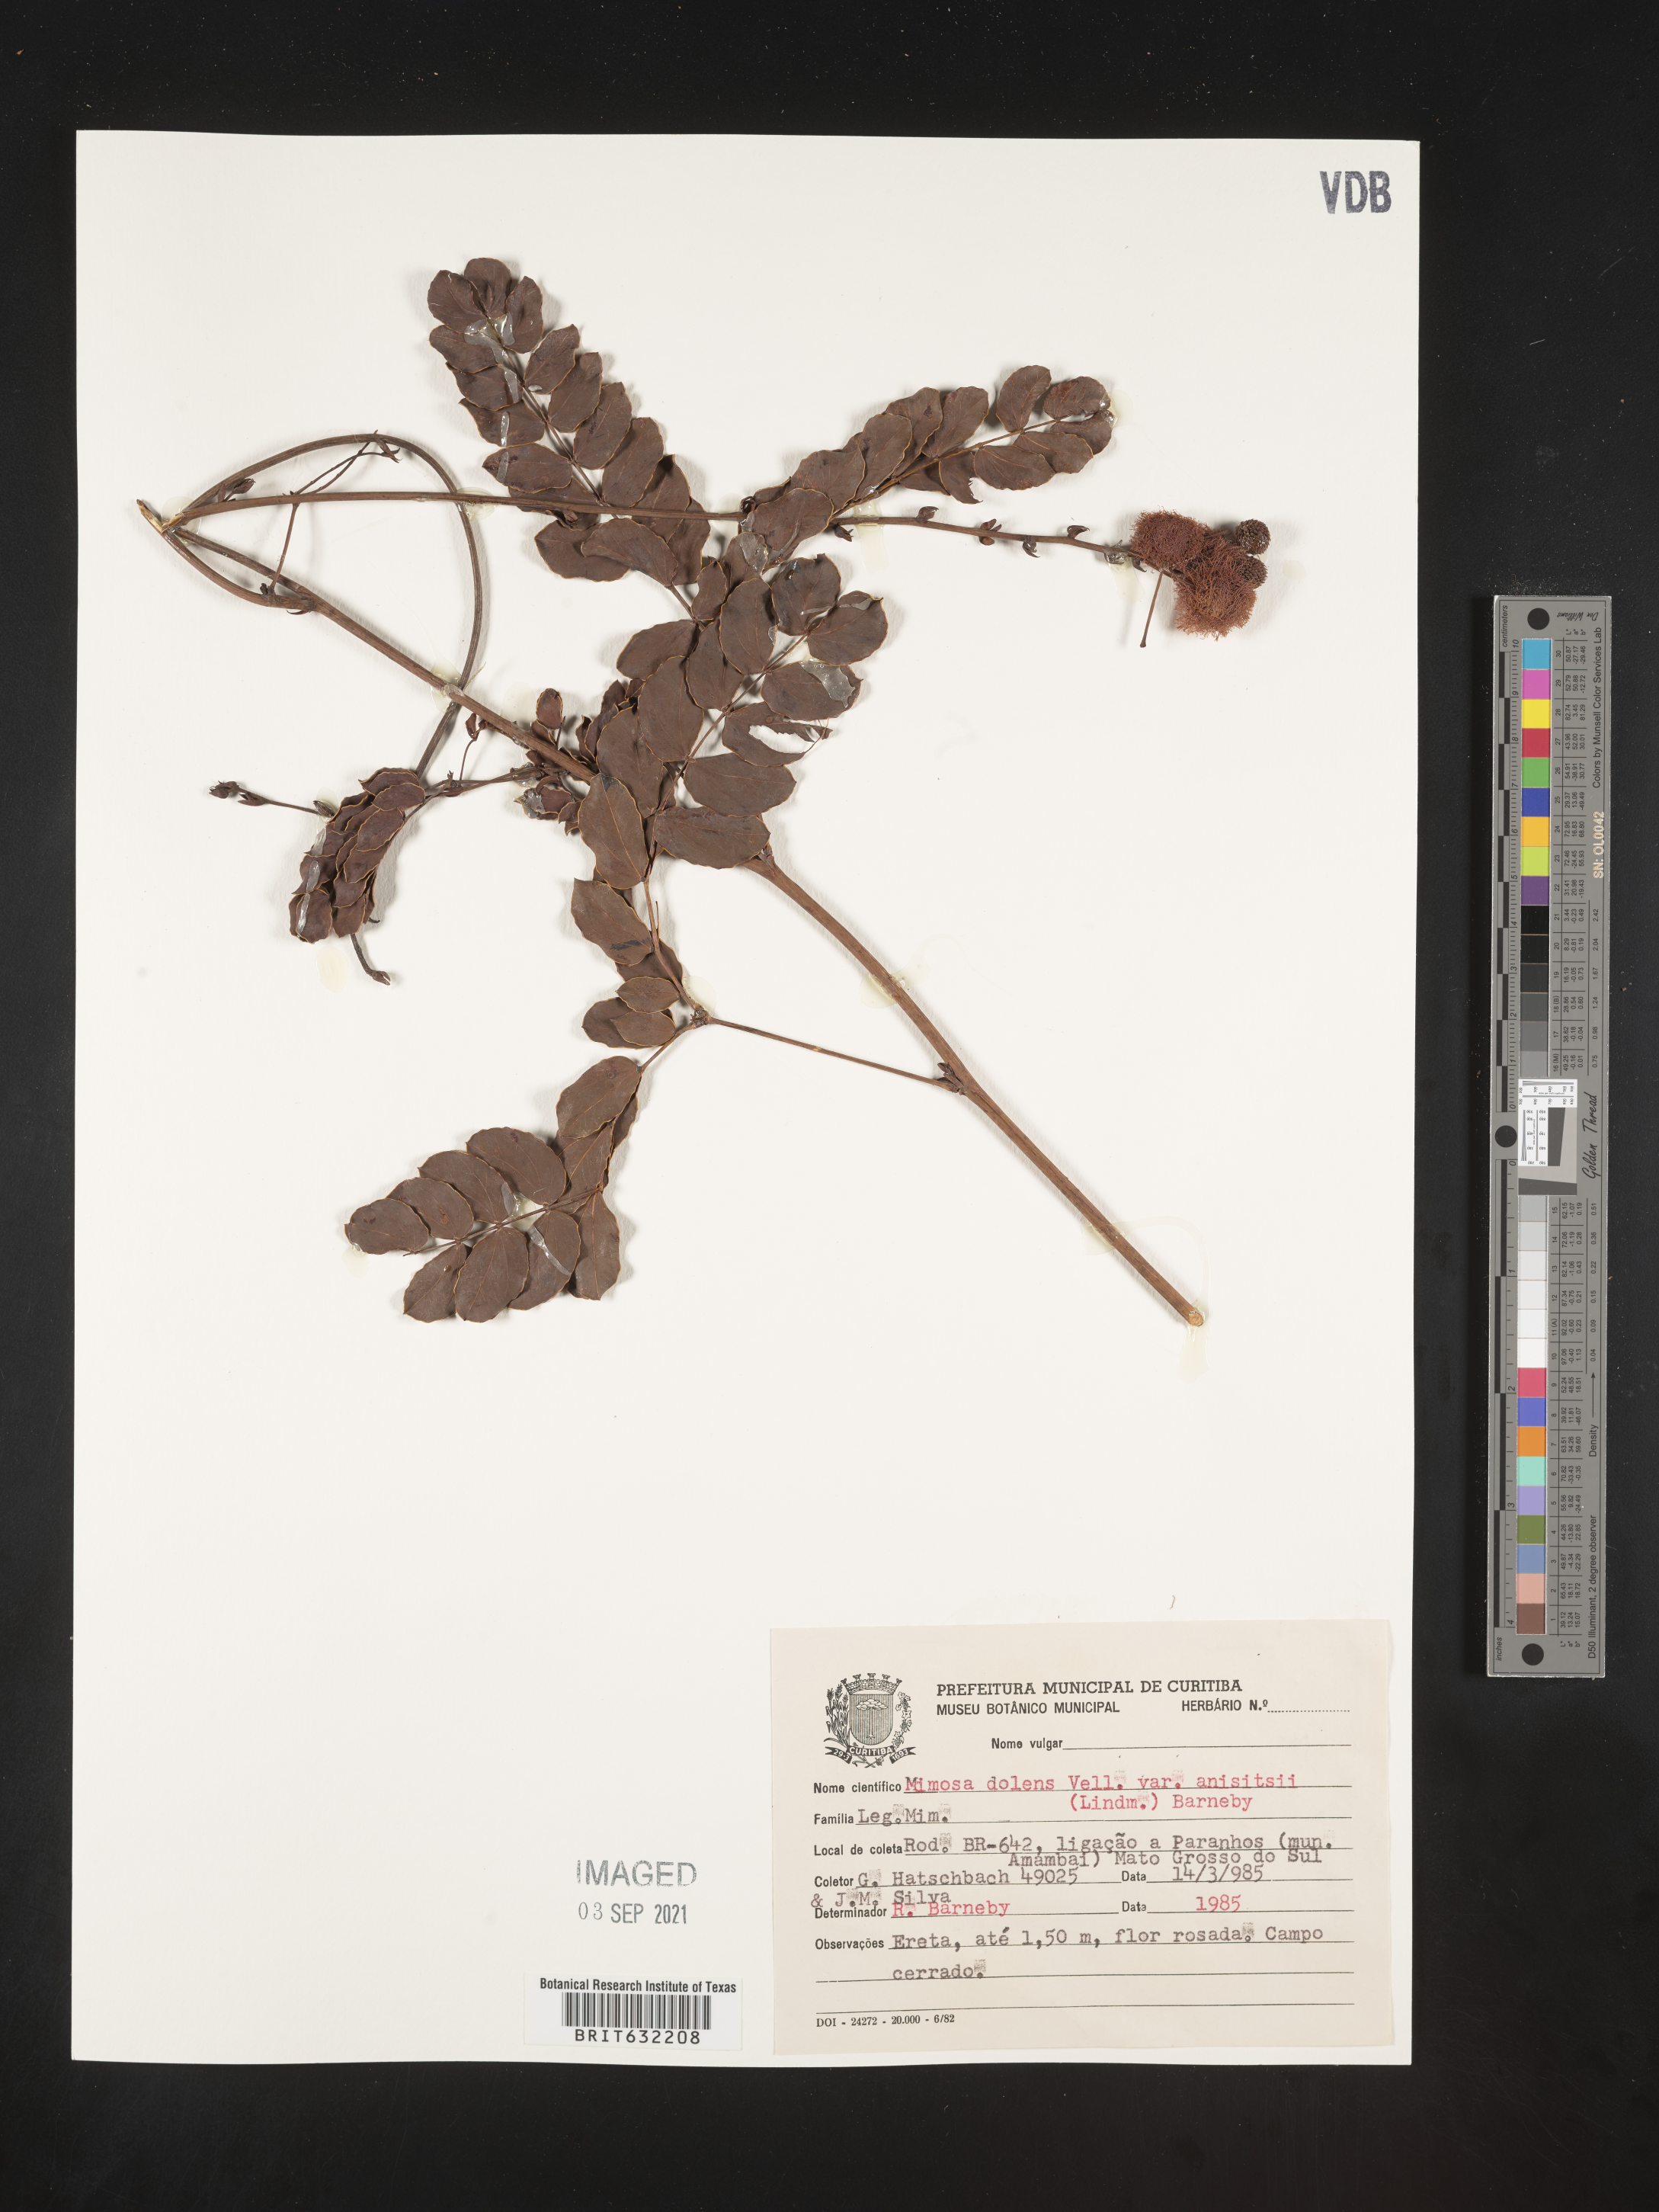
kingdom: Plantae
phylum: Tracheophyta
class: Magnoliopsida
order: Fabales
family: Fabaceae
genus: Mimosa
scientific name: Mimosa
